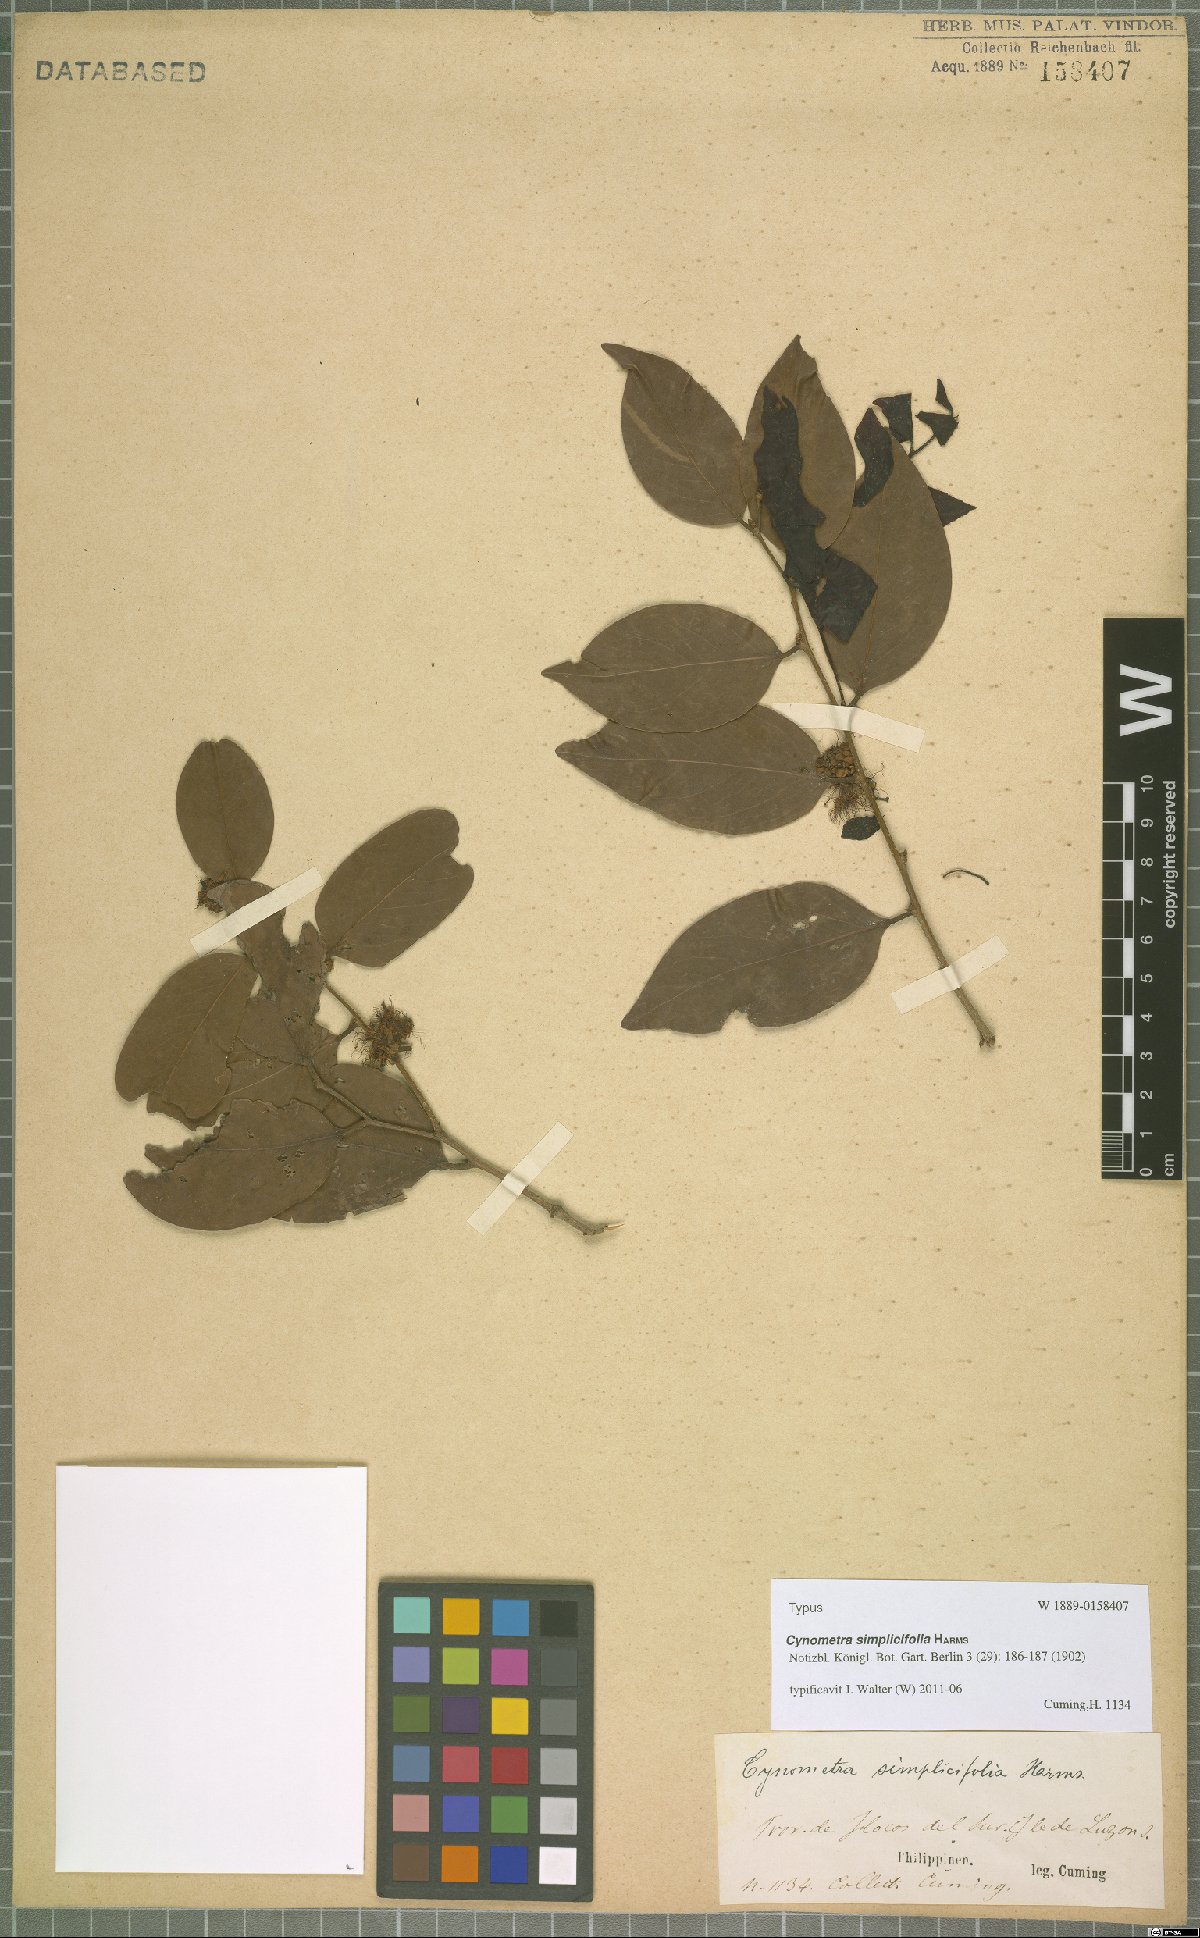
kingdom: Plantae
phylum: Tracheophyta
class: Magnoliopsida
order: Fabales
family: Fabaceae
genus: Cynometra
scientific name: Cynometra simplicifolia
